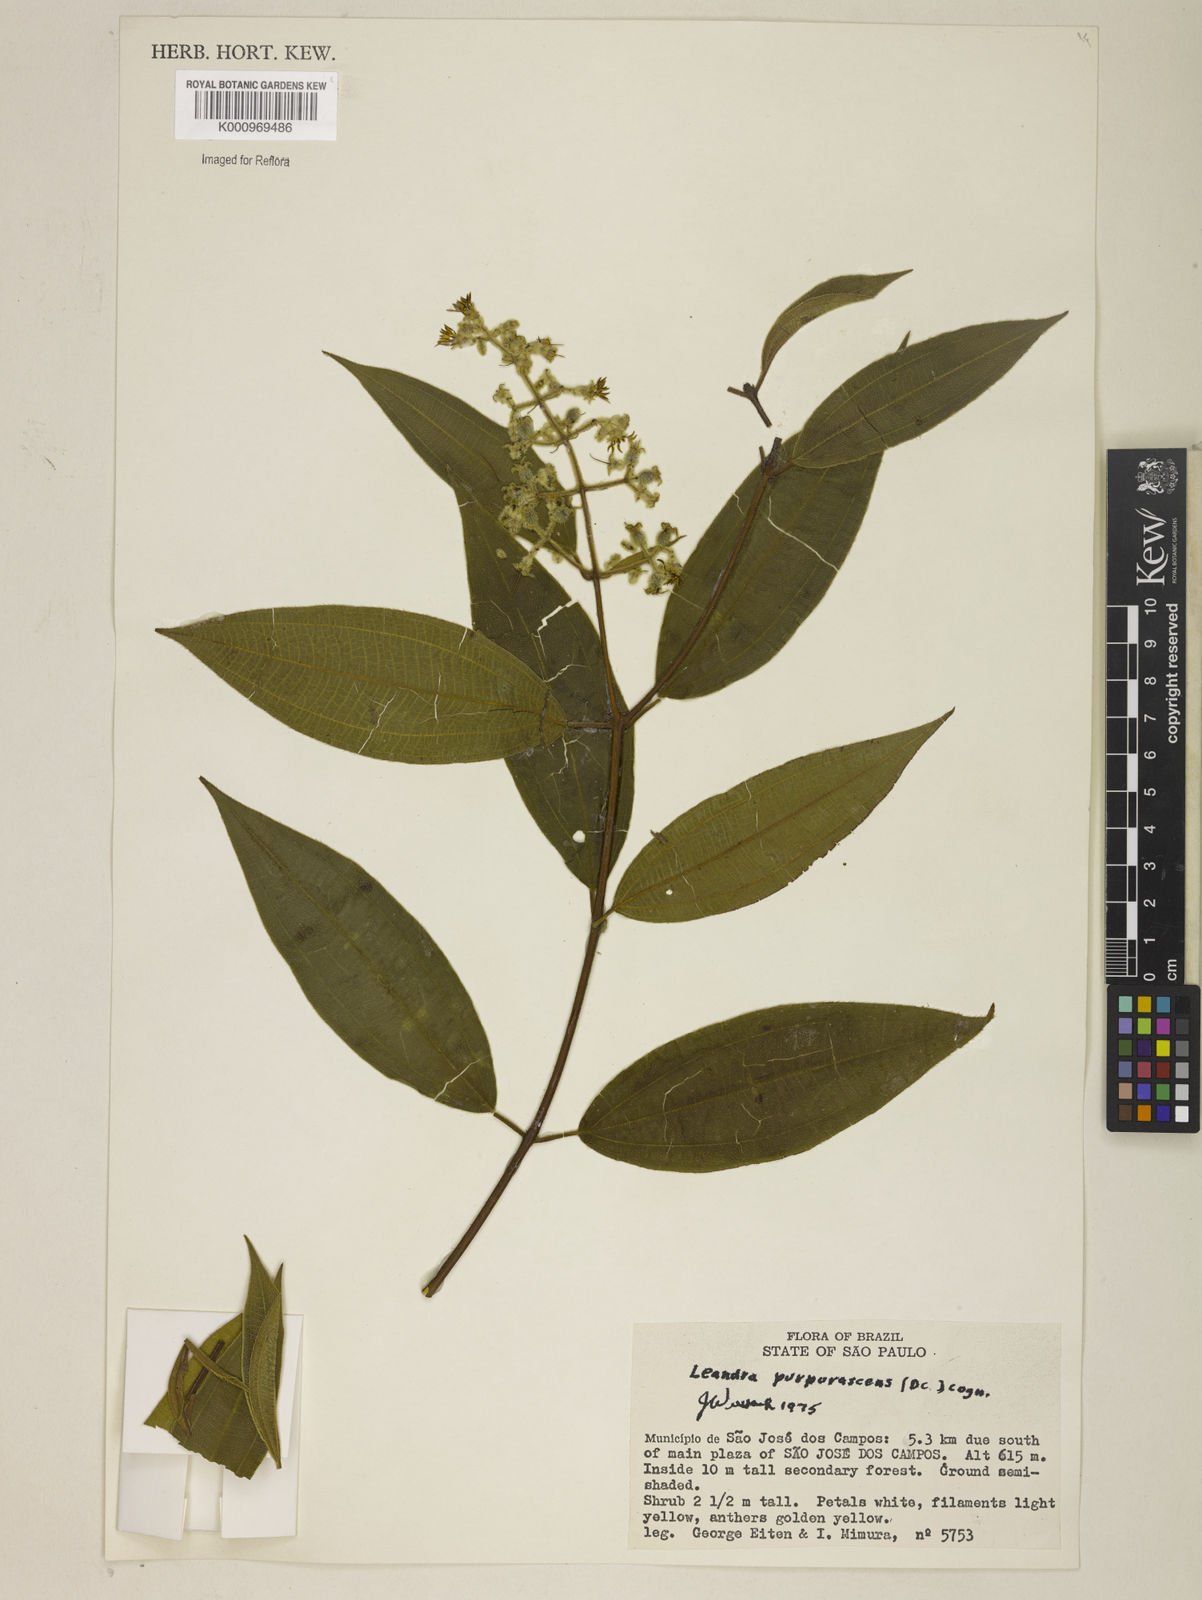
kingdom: Plantae
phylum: Tracheophyta
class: Magnoliopsida
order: Myrtales
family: Melastomataceae
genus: Miconia
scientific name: Miconia microstachya
